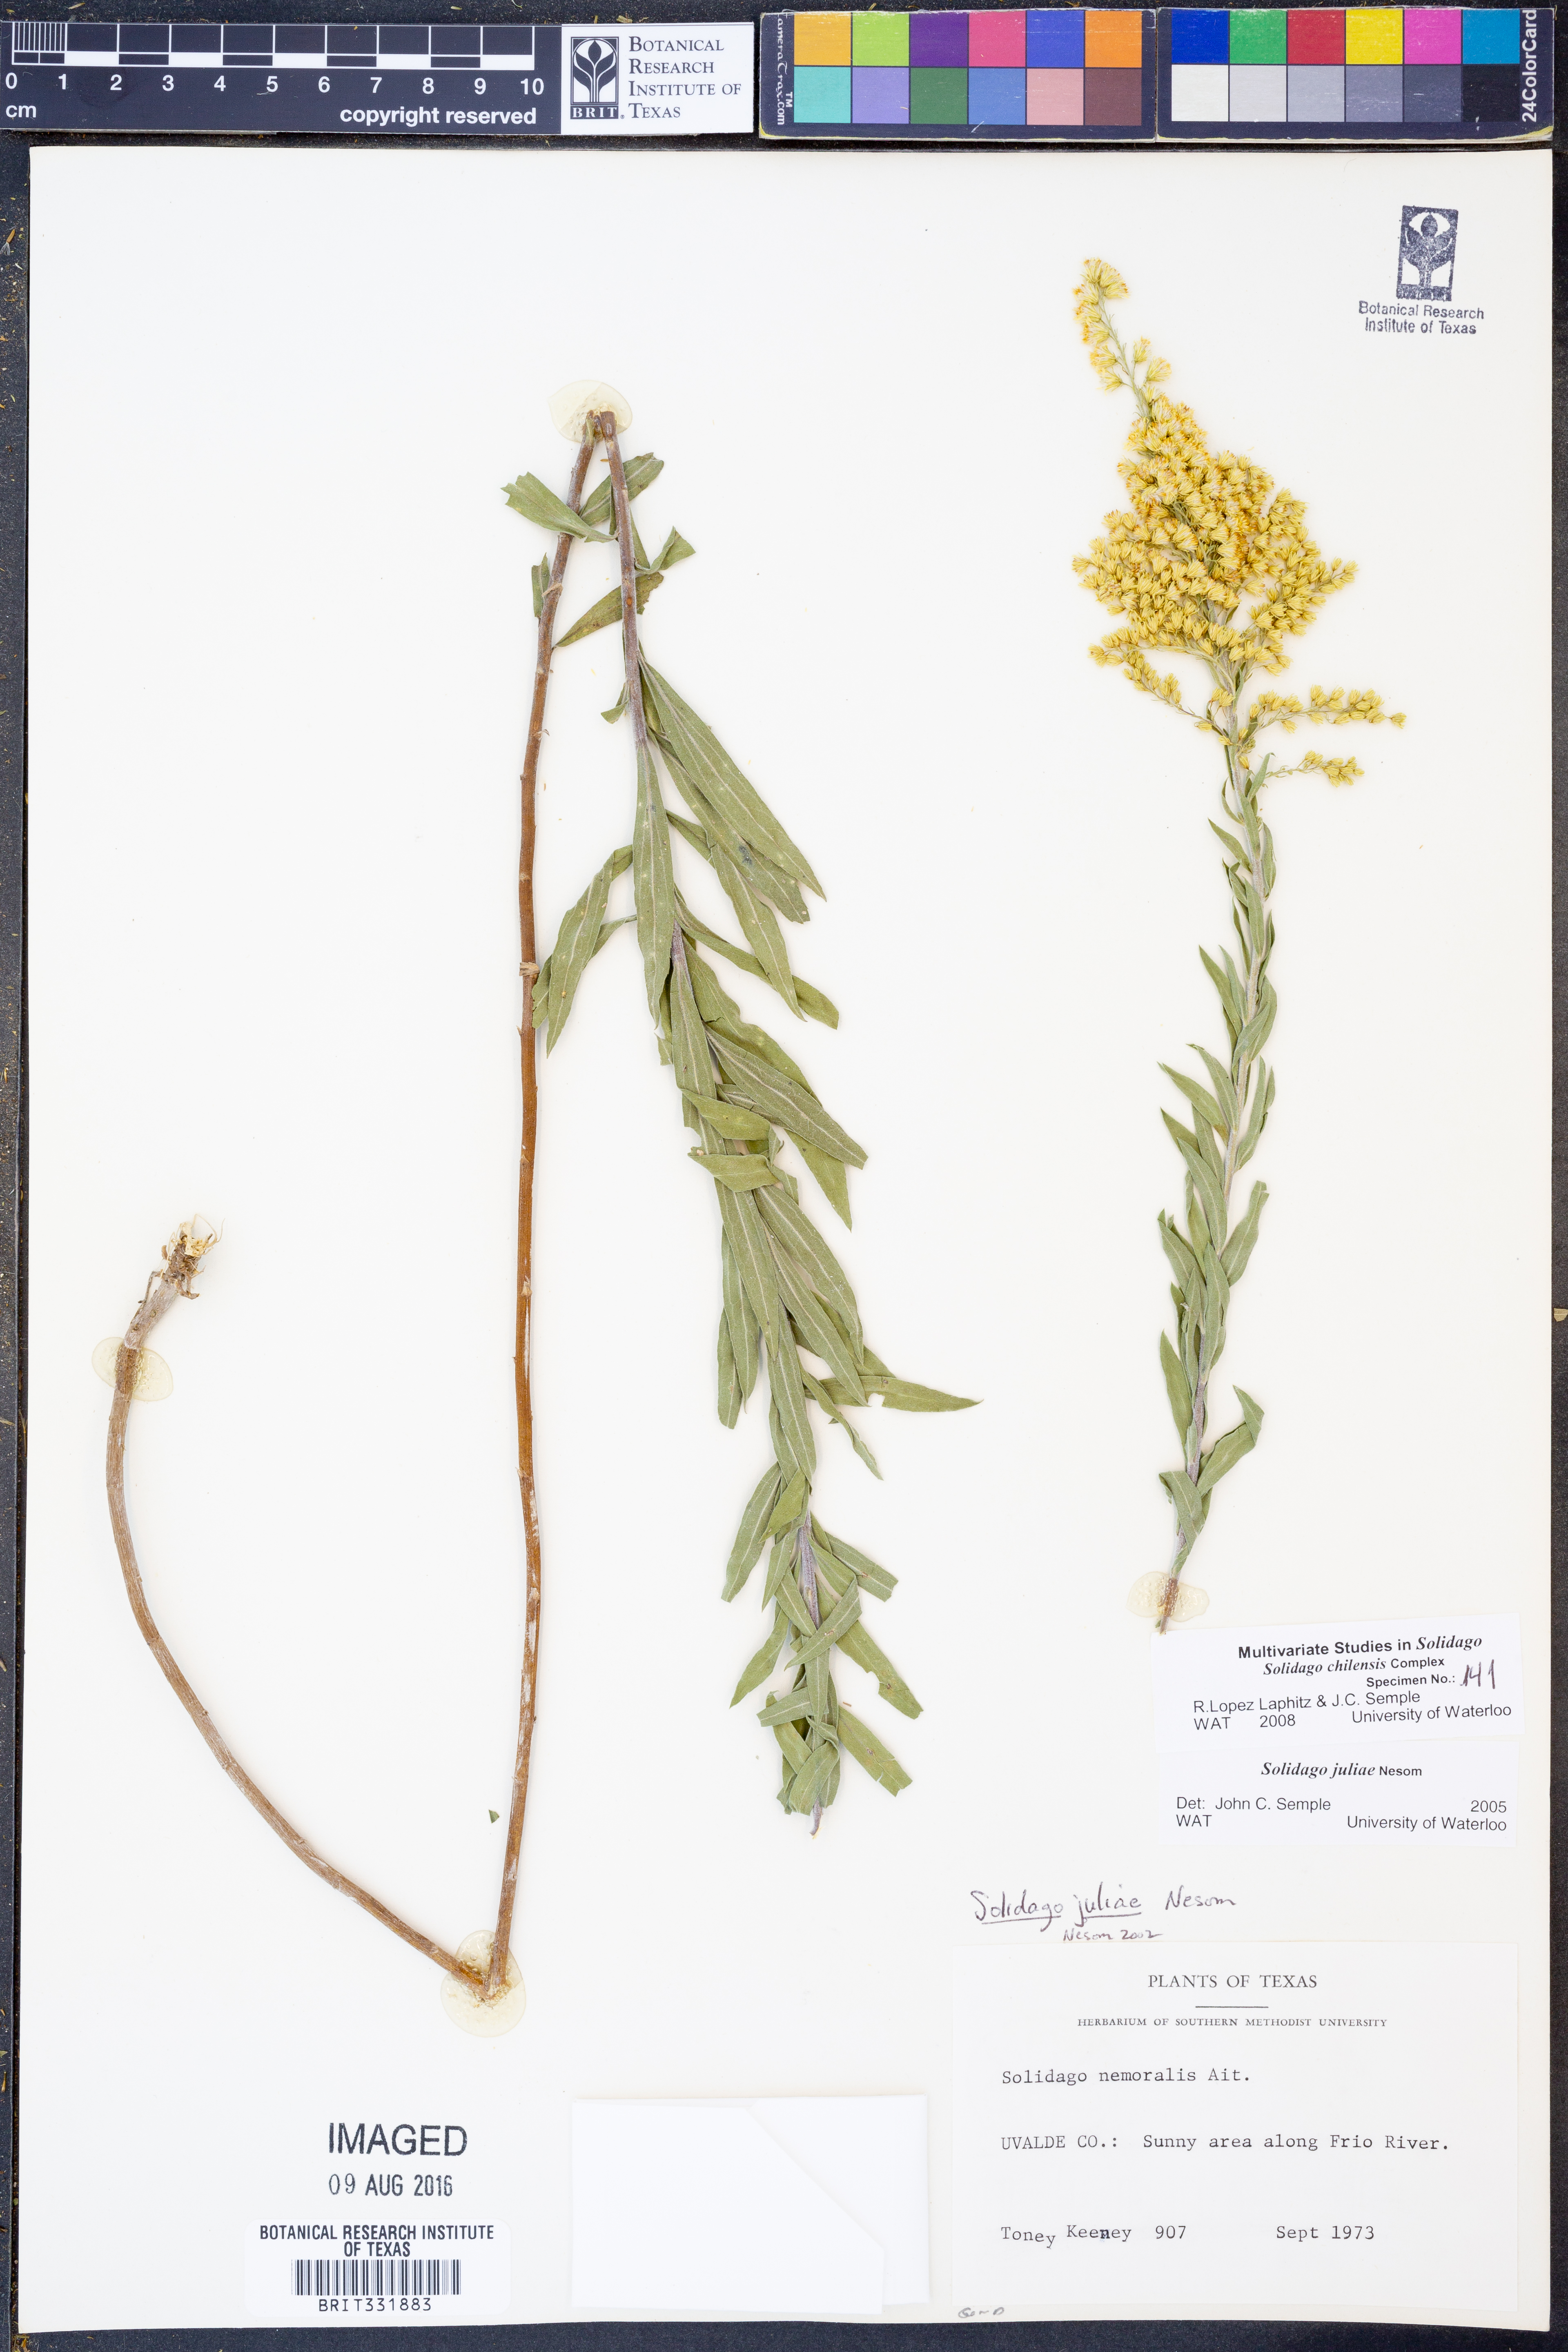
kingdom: Plantae
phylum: Tracheophyta
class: Magnoliopsida
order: Asterales
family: Asteraceae
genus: Solidago
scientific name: Solidago juliae
